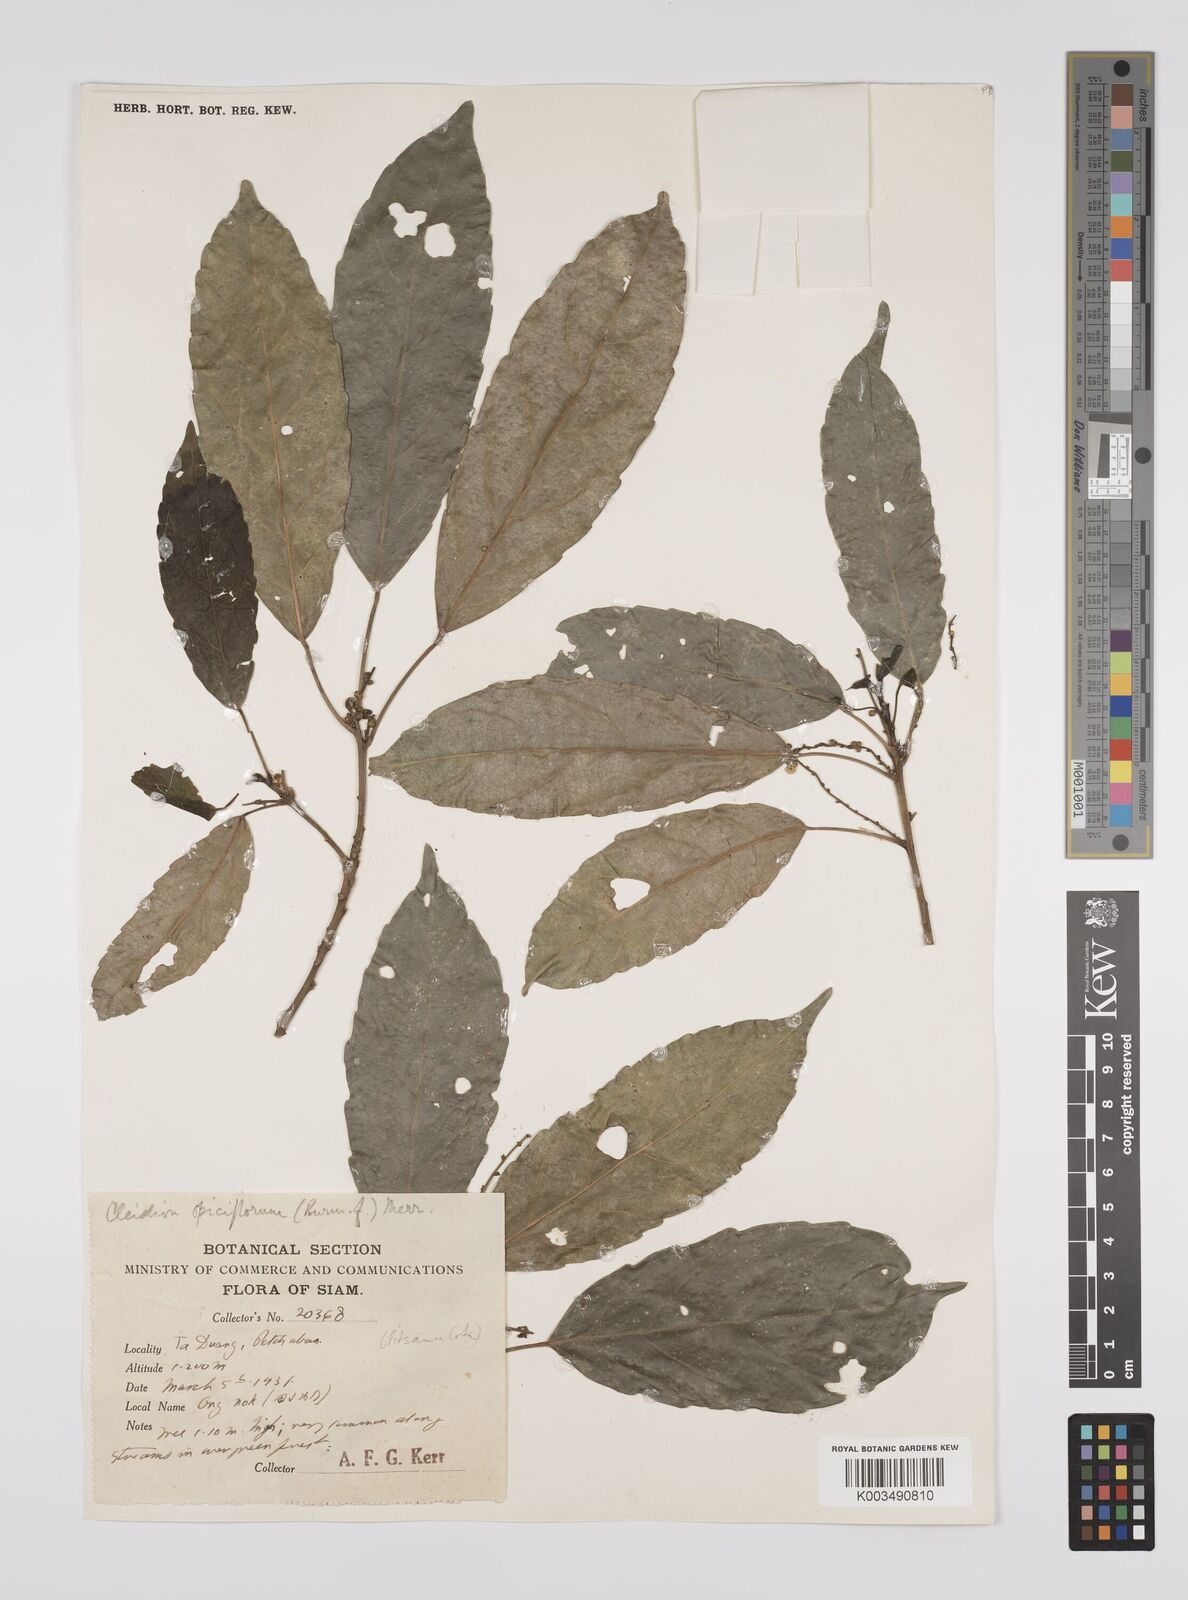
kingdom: Plantae
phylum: Tracheophyta
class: Magnoliopsida
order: Malpighiales
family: Euphorbiaceae
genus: Acalypha
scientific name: Acalypha spiciflora
